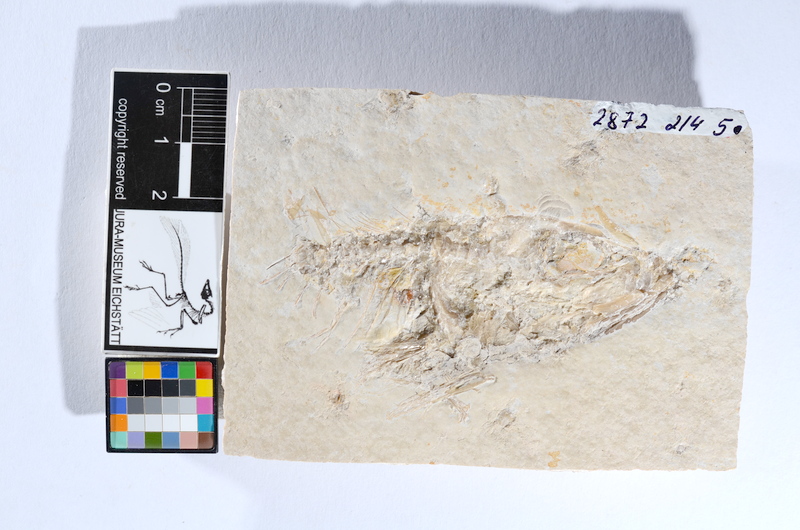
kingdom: Animalia
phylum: Chordata
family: Ascalaboidae
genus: Tharsis
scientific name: Tharsis dubius
